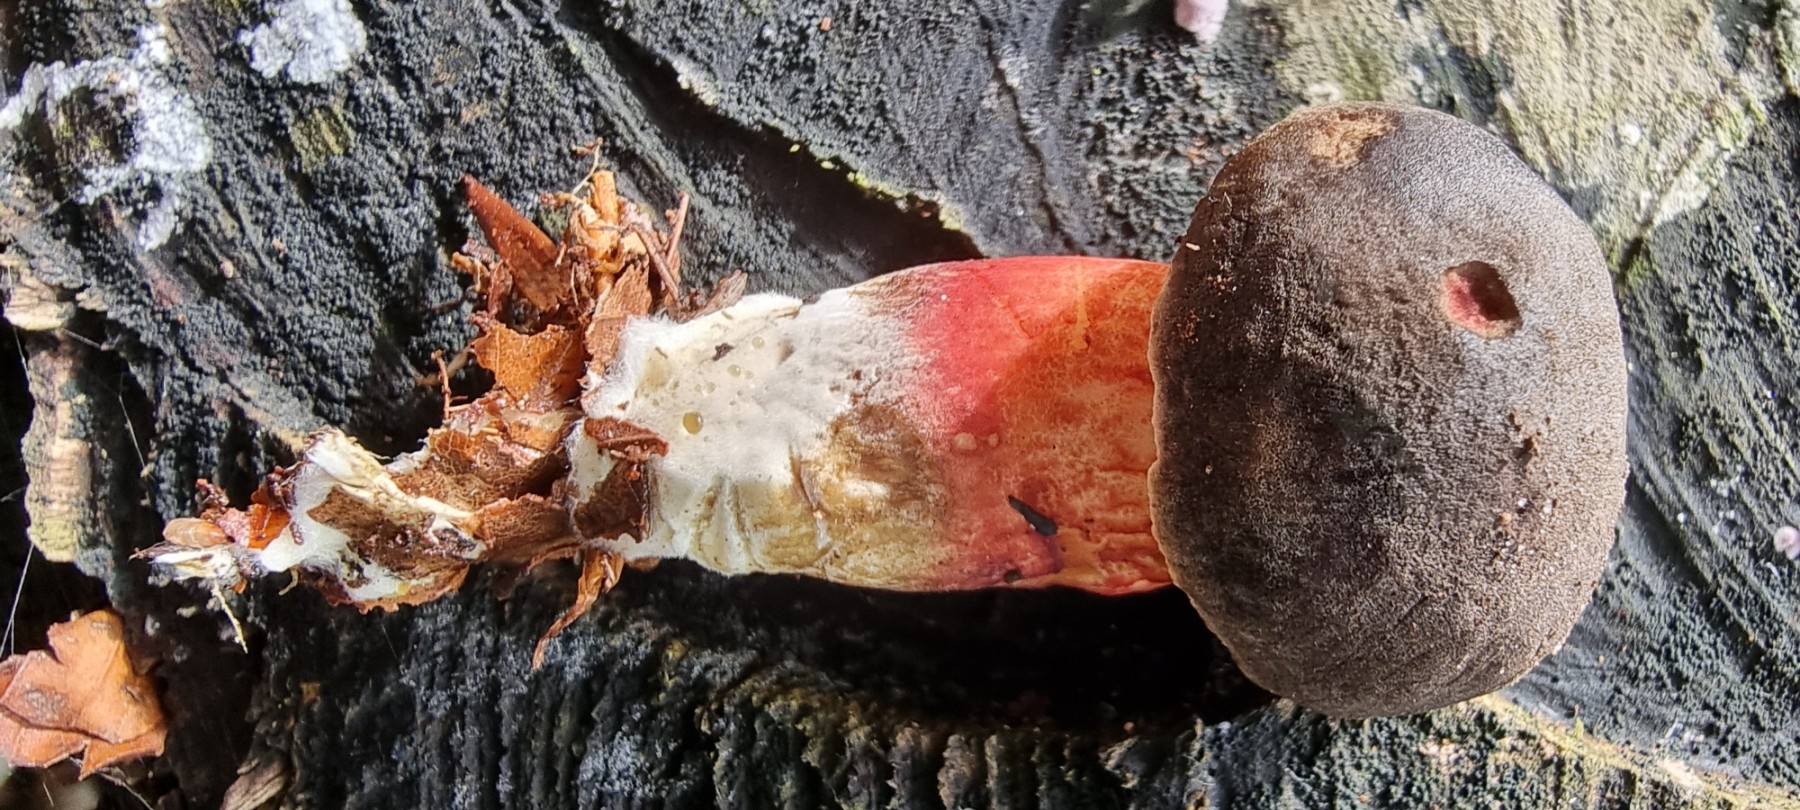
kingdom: Fungi
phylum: Basidiomycota
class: Agaricomycetes
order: Boletales
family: Boletaceae
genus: Xerocomellus
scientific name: Xerocomellus
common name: dværgrørhat
